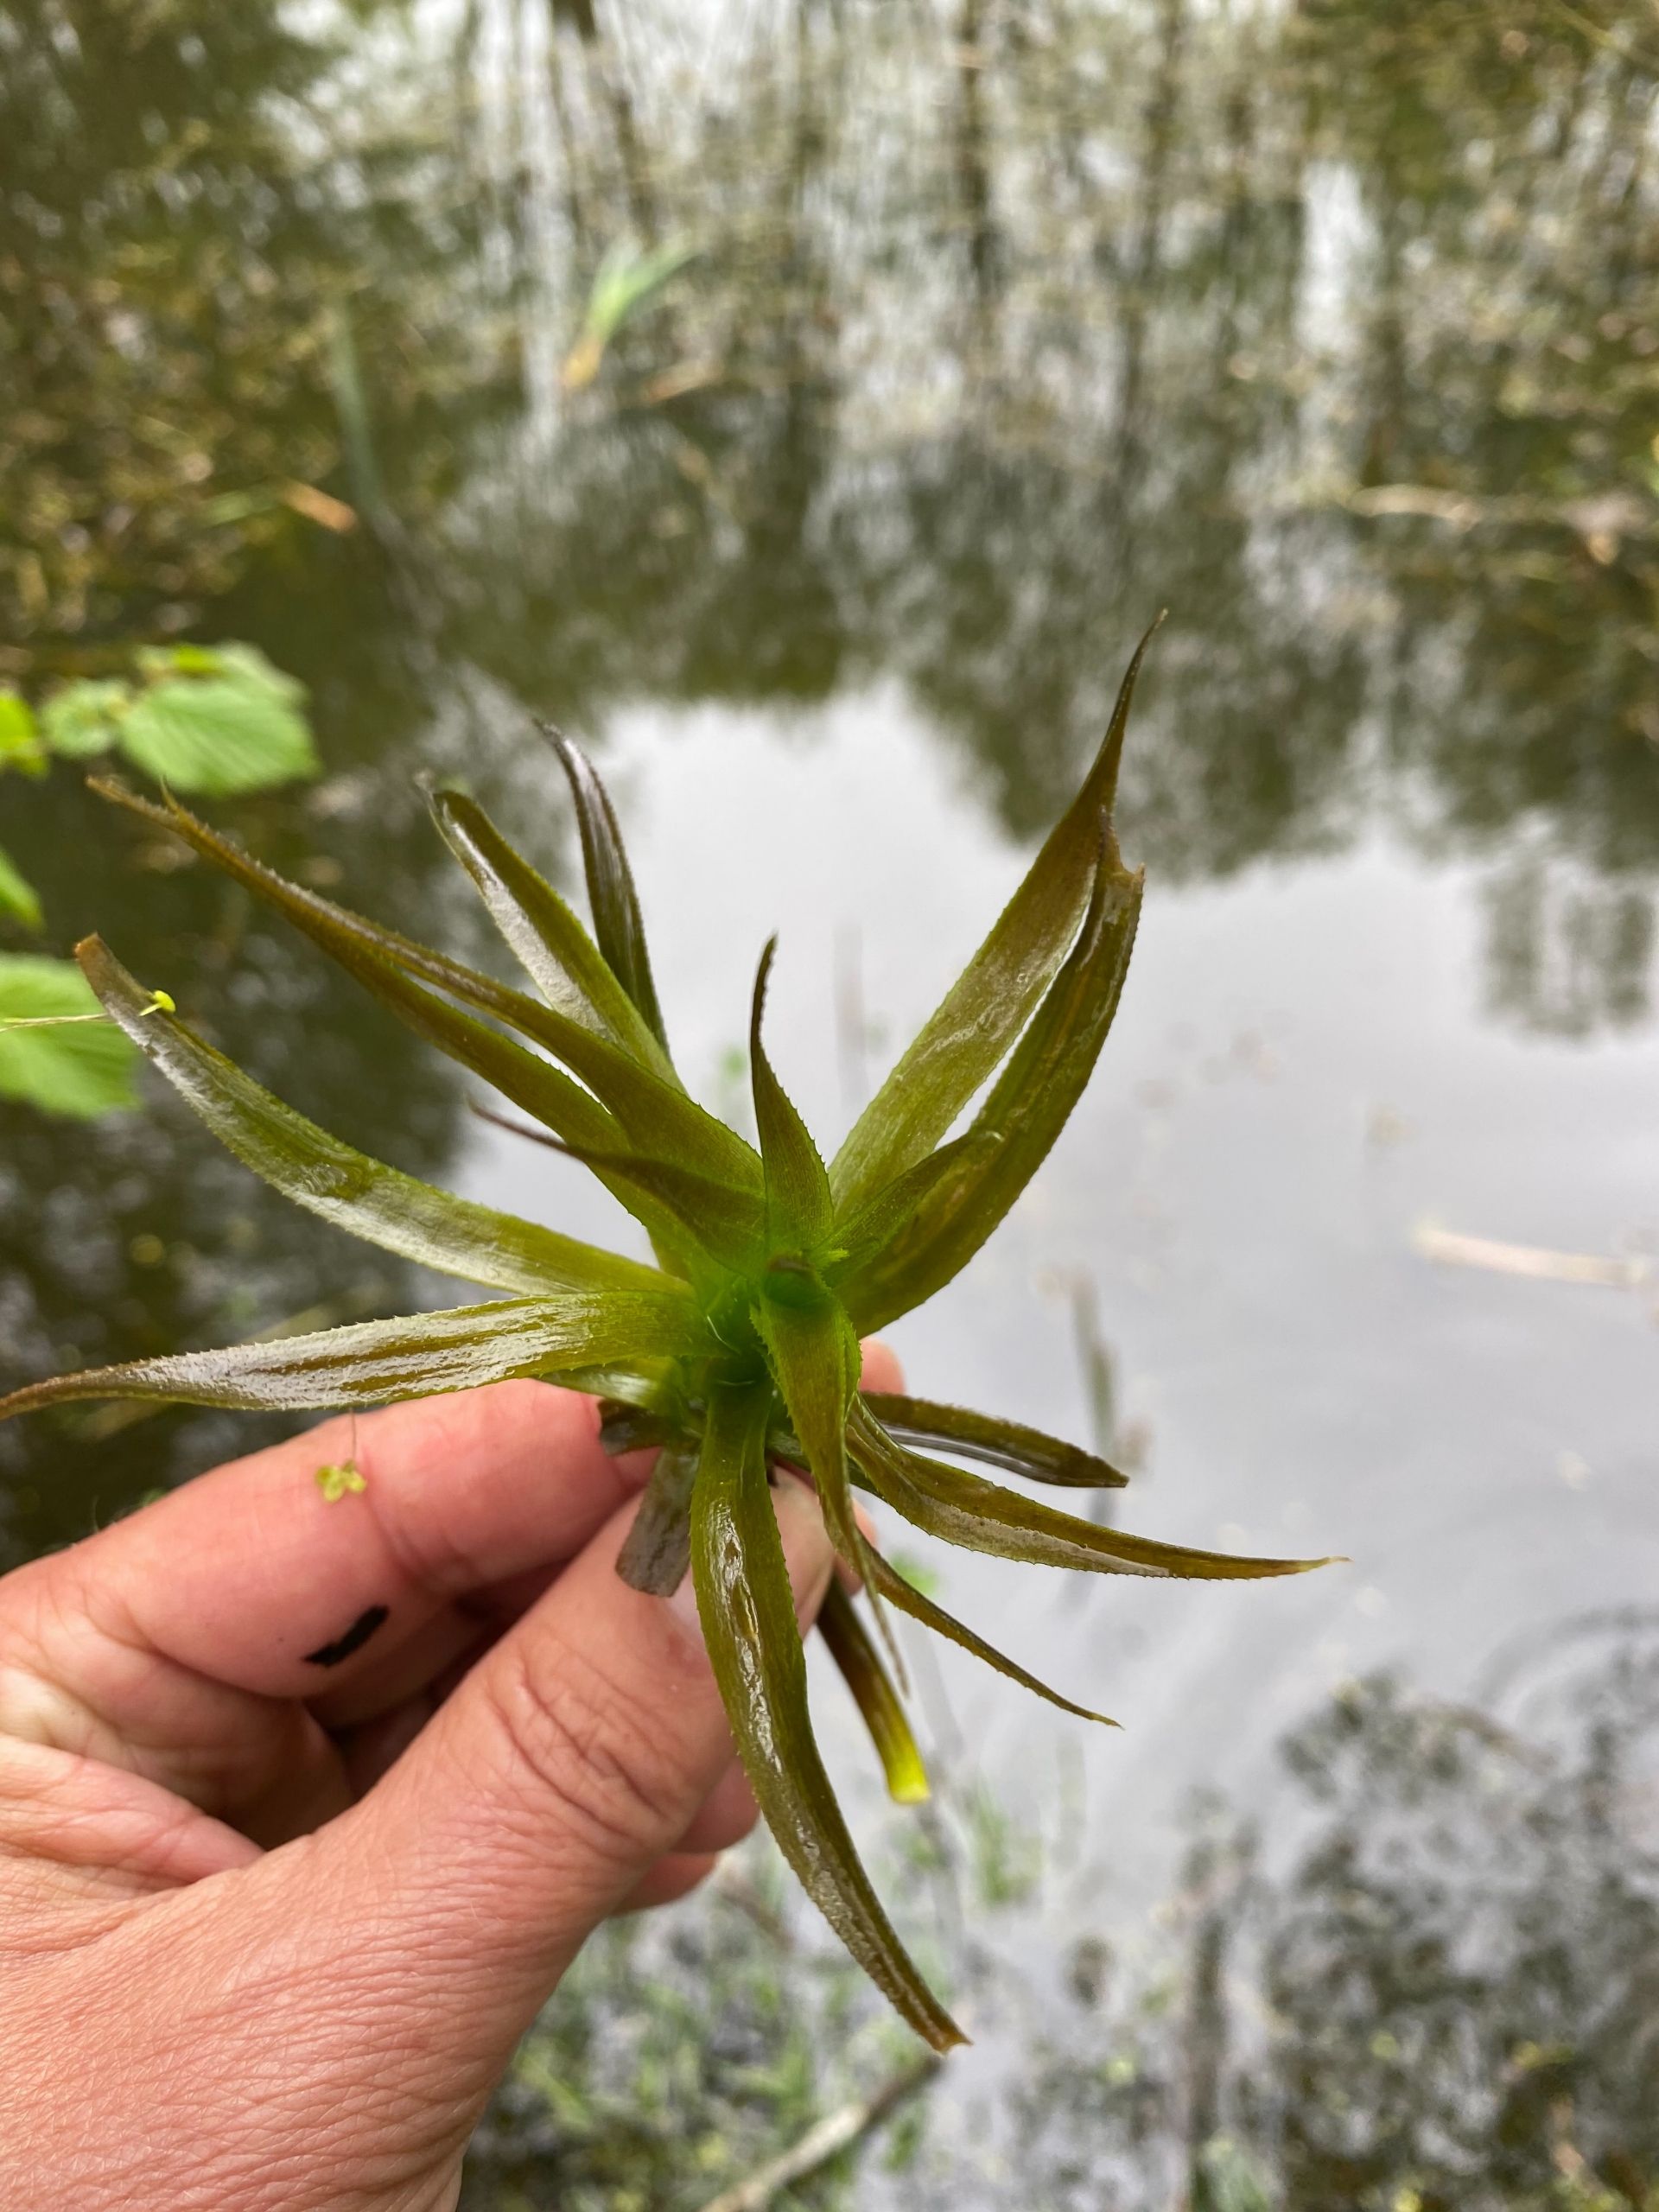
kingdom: Plantae
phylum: Tracheophyta
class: Liliopsida
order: Alismatales
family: Hydrocharitaceae
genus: Stratiotes
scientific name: Stratiotes aloides
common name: Krebseklo
